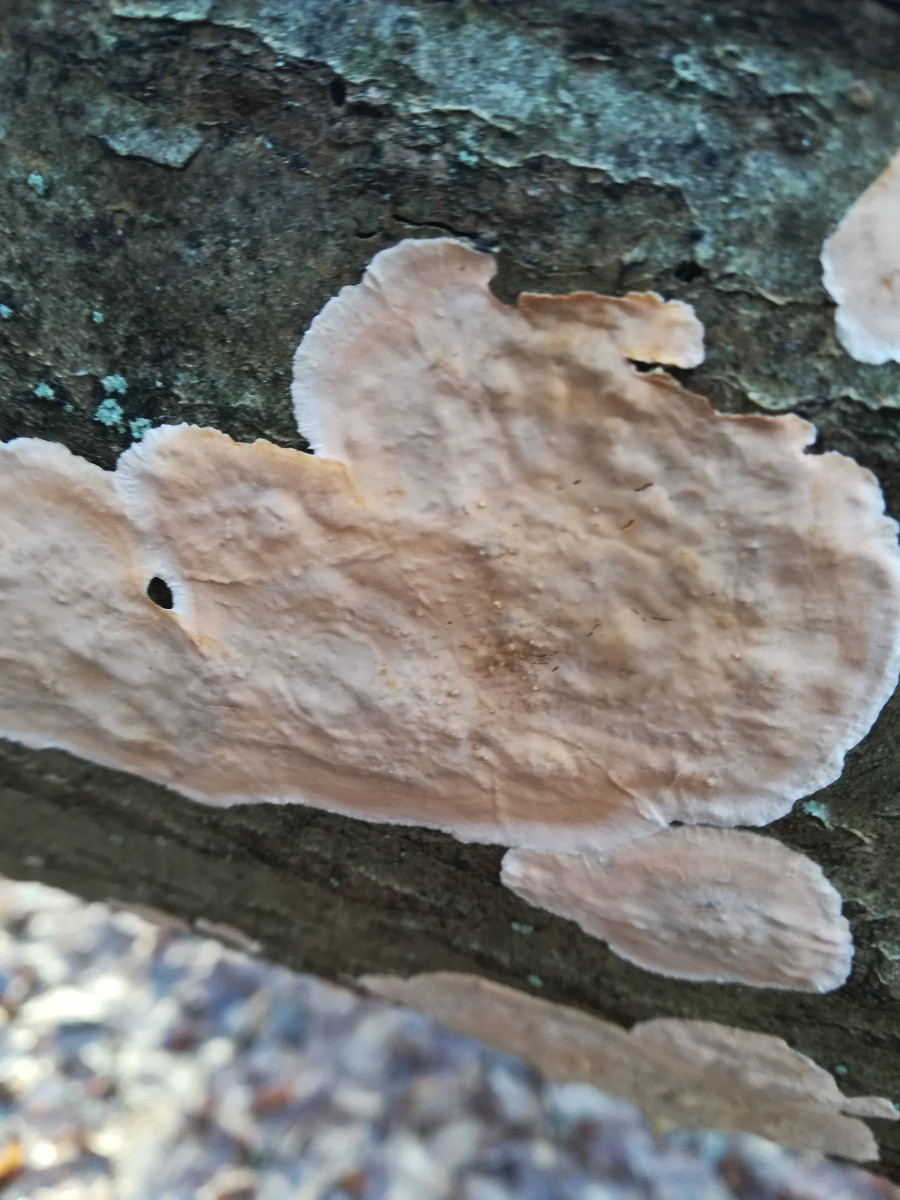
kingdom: Fungi
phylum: Basidiomycota
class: Agaricomycetes
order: Russulales
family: Stereaceae
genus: Stereum
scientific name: Stereum gausapatum
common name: tynd lædersvamp
